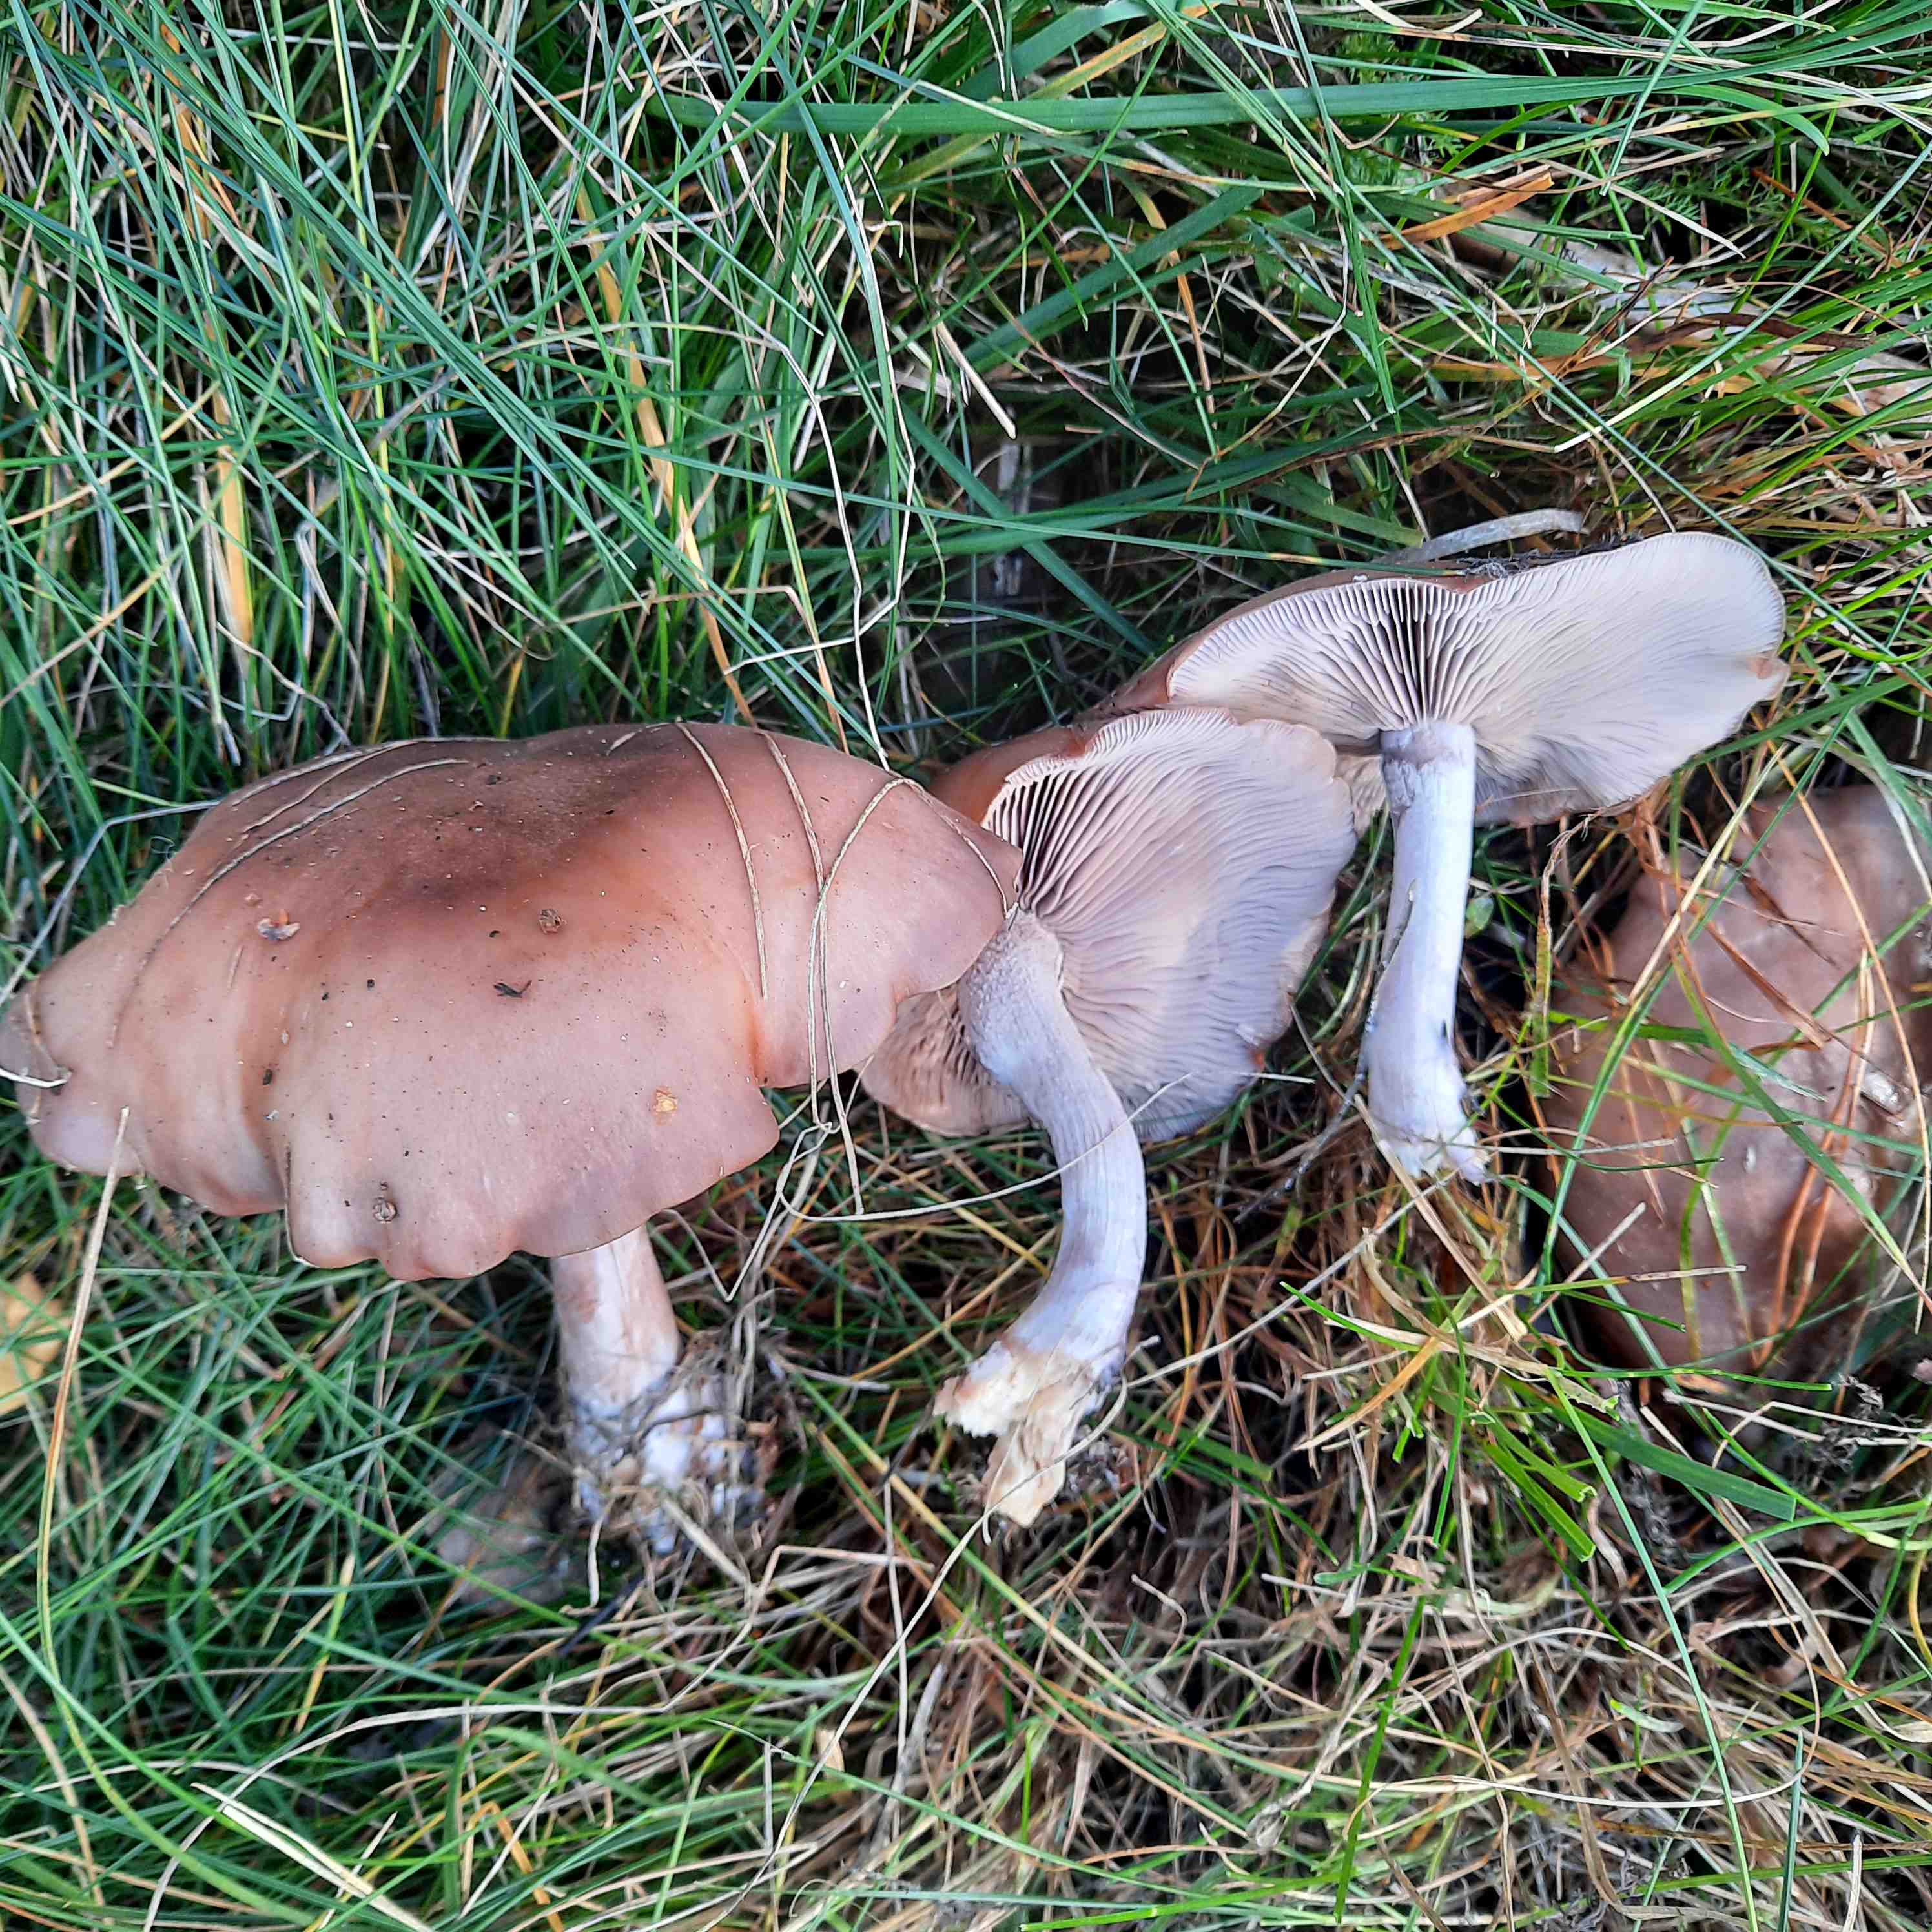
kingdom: Fungi
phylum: Basidiomycota
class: Agaricomycetes
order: Agaricales
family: Tricholomataceae
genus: Lepista
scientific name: Lepista personata
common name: bleg hekseringshat
